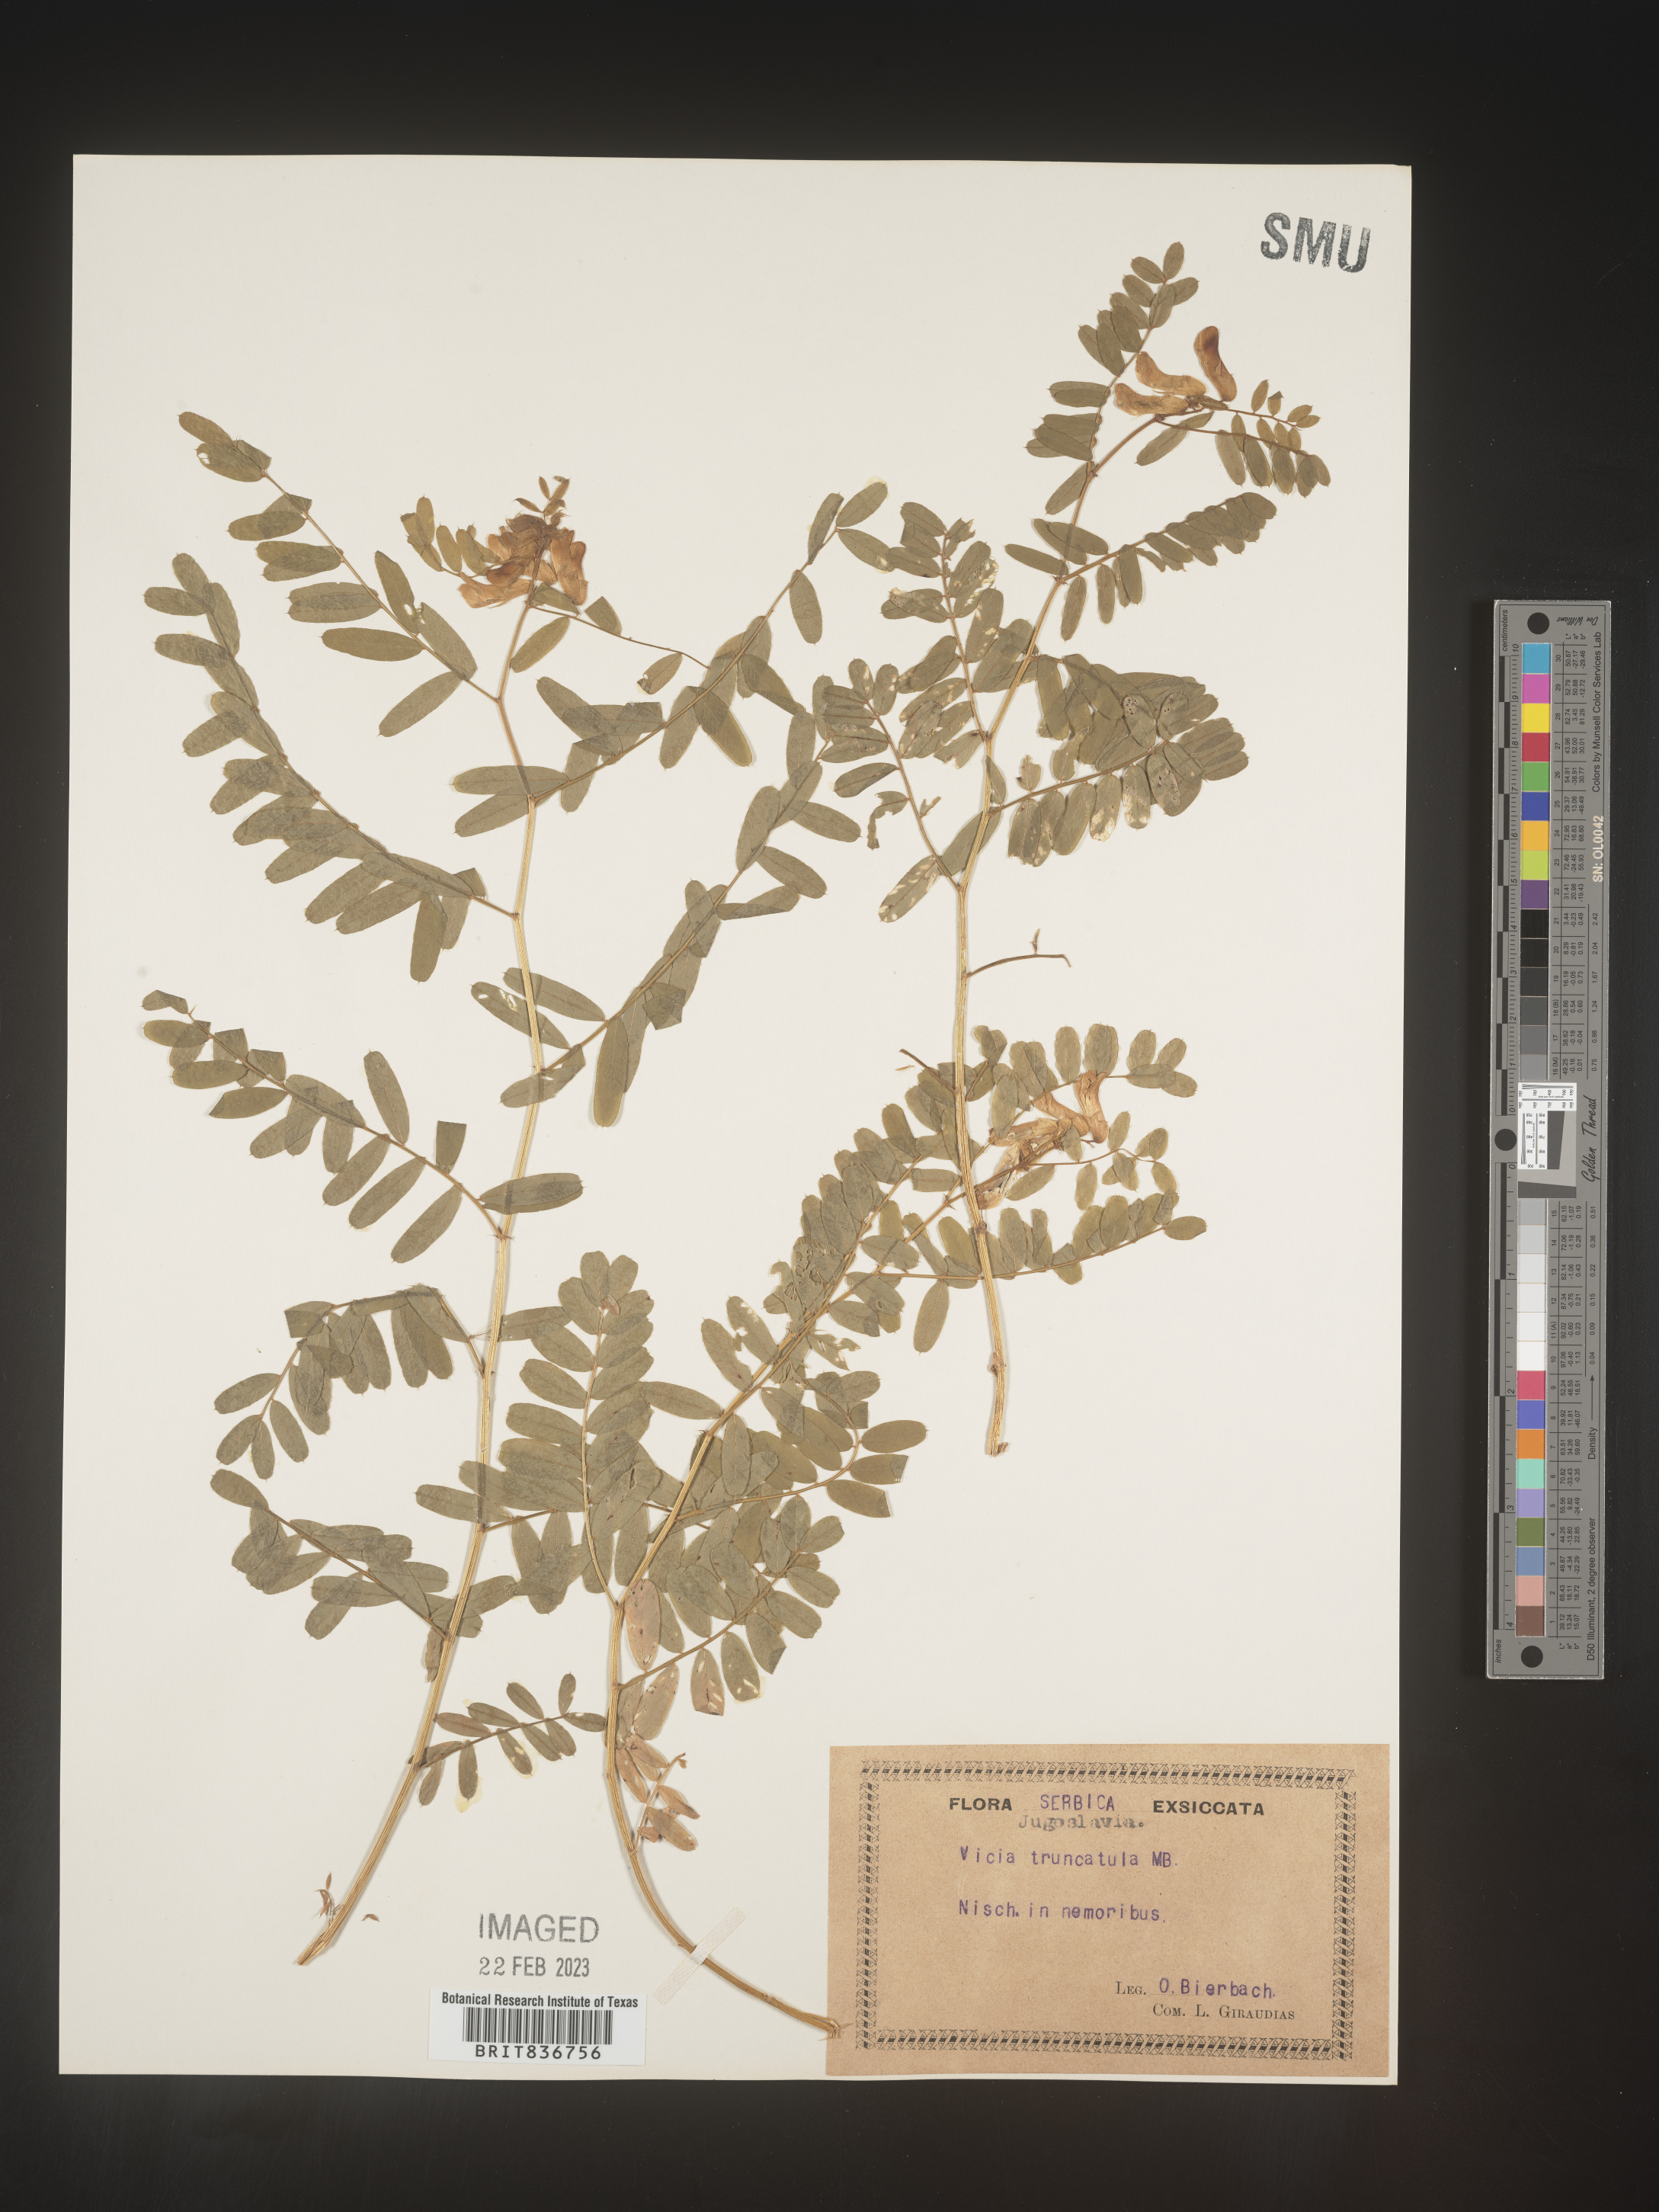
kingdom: Plantae
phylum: Tracheophyta
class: Magnoliopsida
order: Fabales
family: Fabaceae
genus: Vicia
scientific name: Vicia
